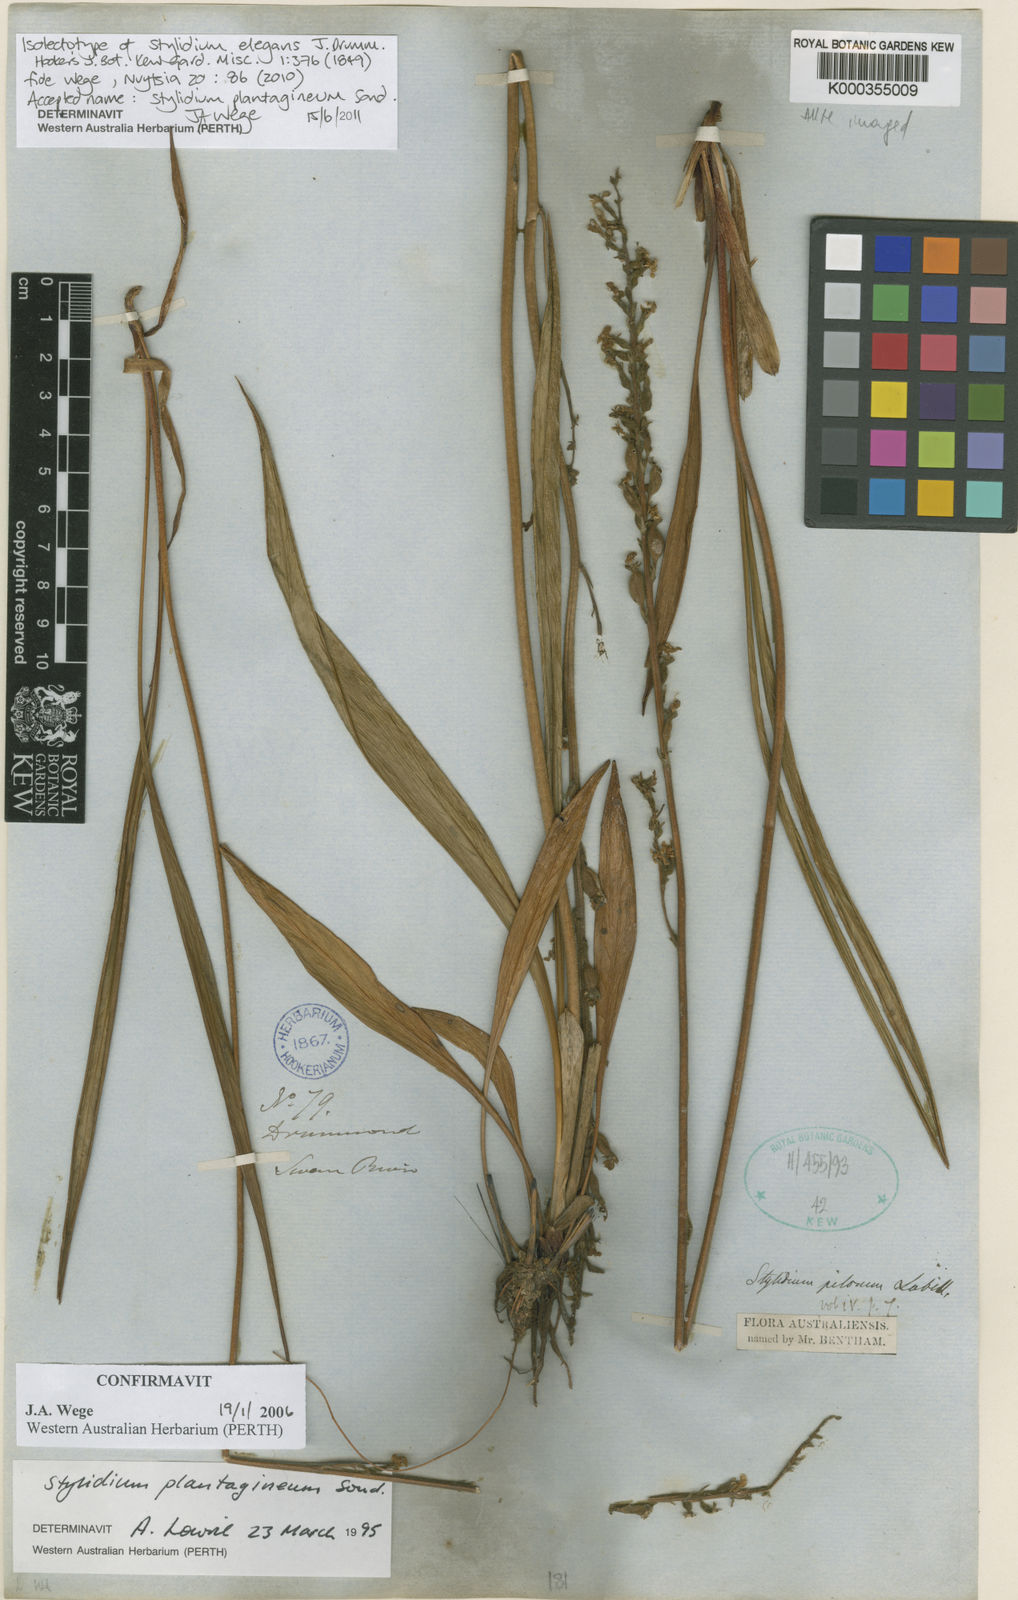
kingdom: Plantae
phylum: Tracheophyta
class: Magnoliopsida
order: Asterales
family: Stylidiaceae
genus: Stylidium
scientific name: Stylidium plantagineum
